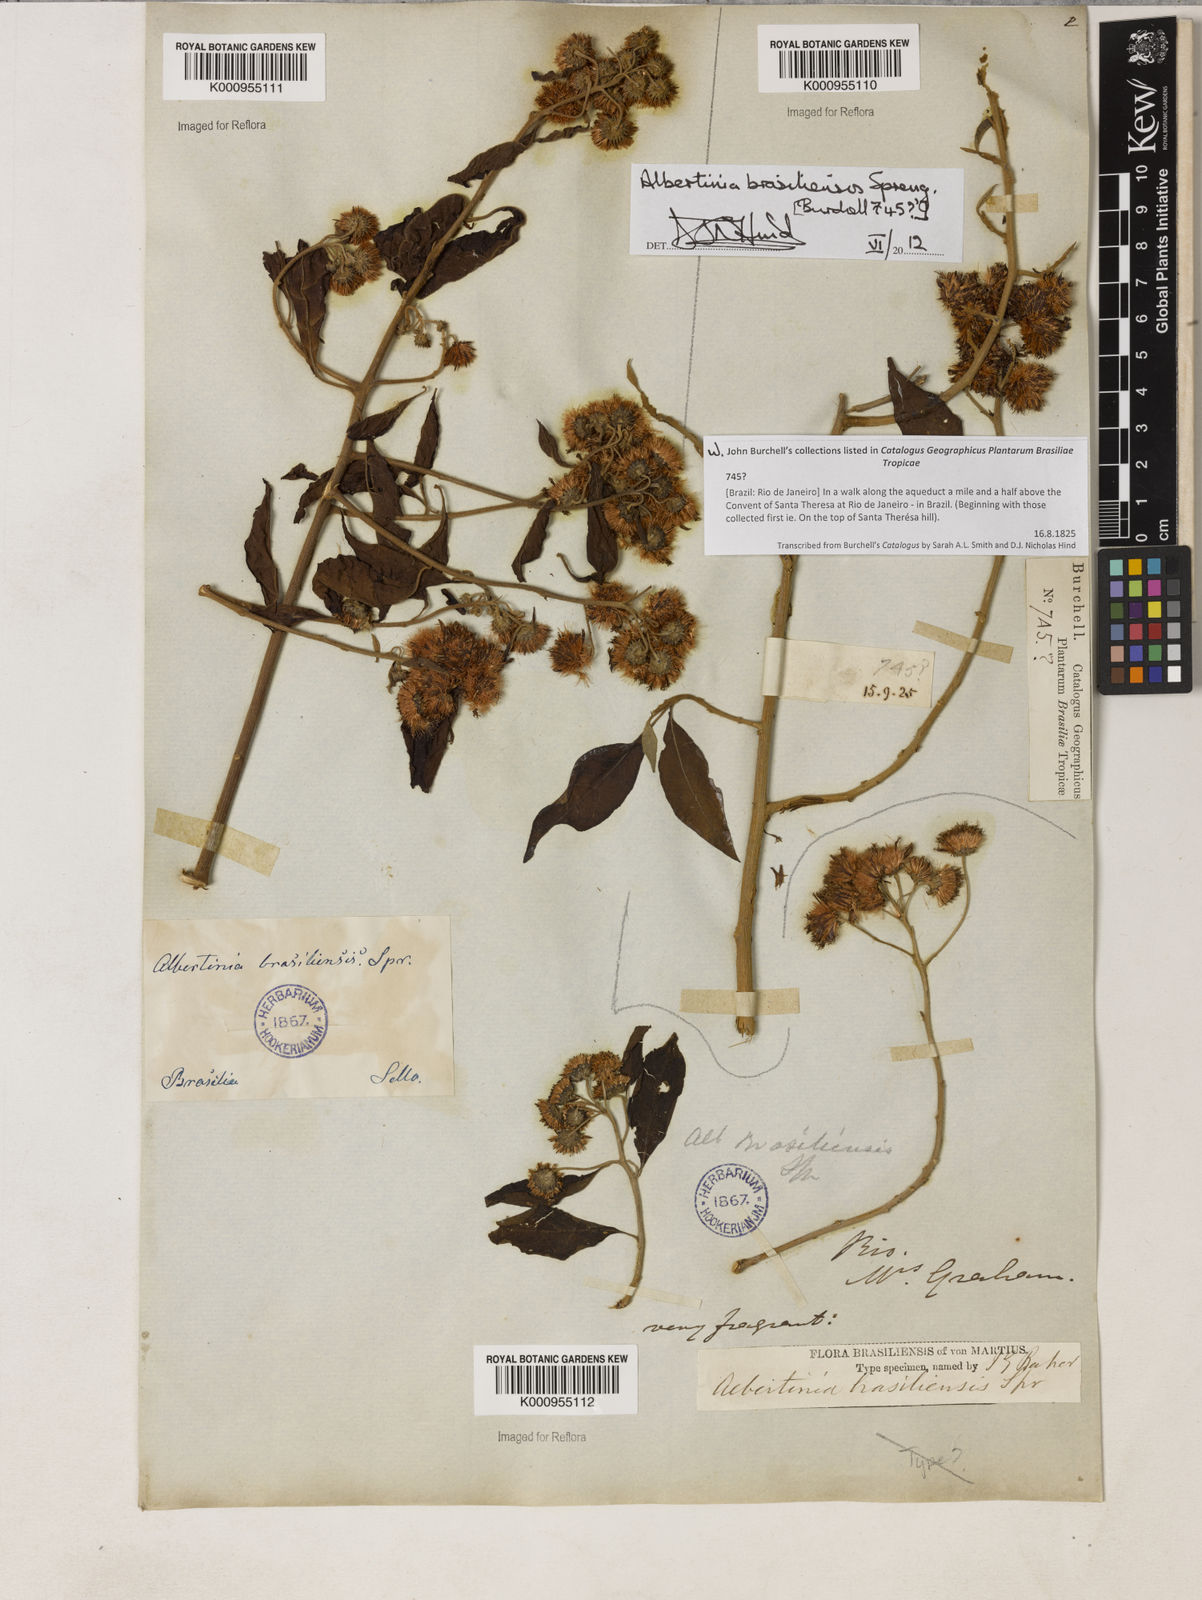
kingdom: Plantae
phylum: Tracheophyta
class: Magnoliopsida
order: Asterales
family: Asteraceae
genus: Albertinia
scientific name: Albertinia brasiliensis
